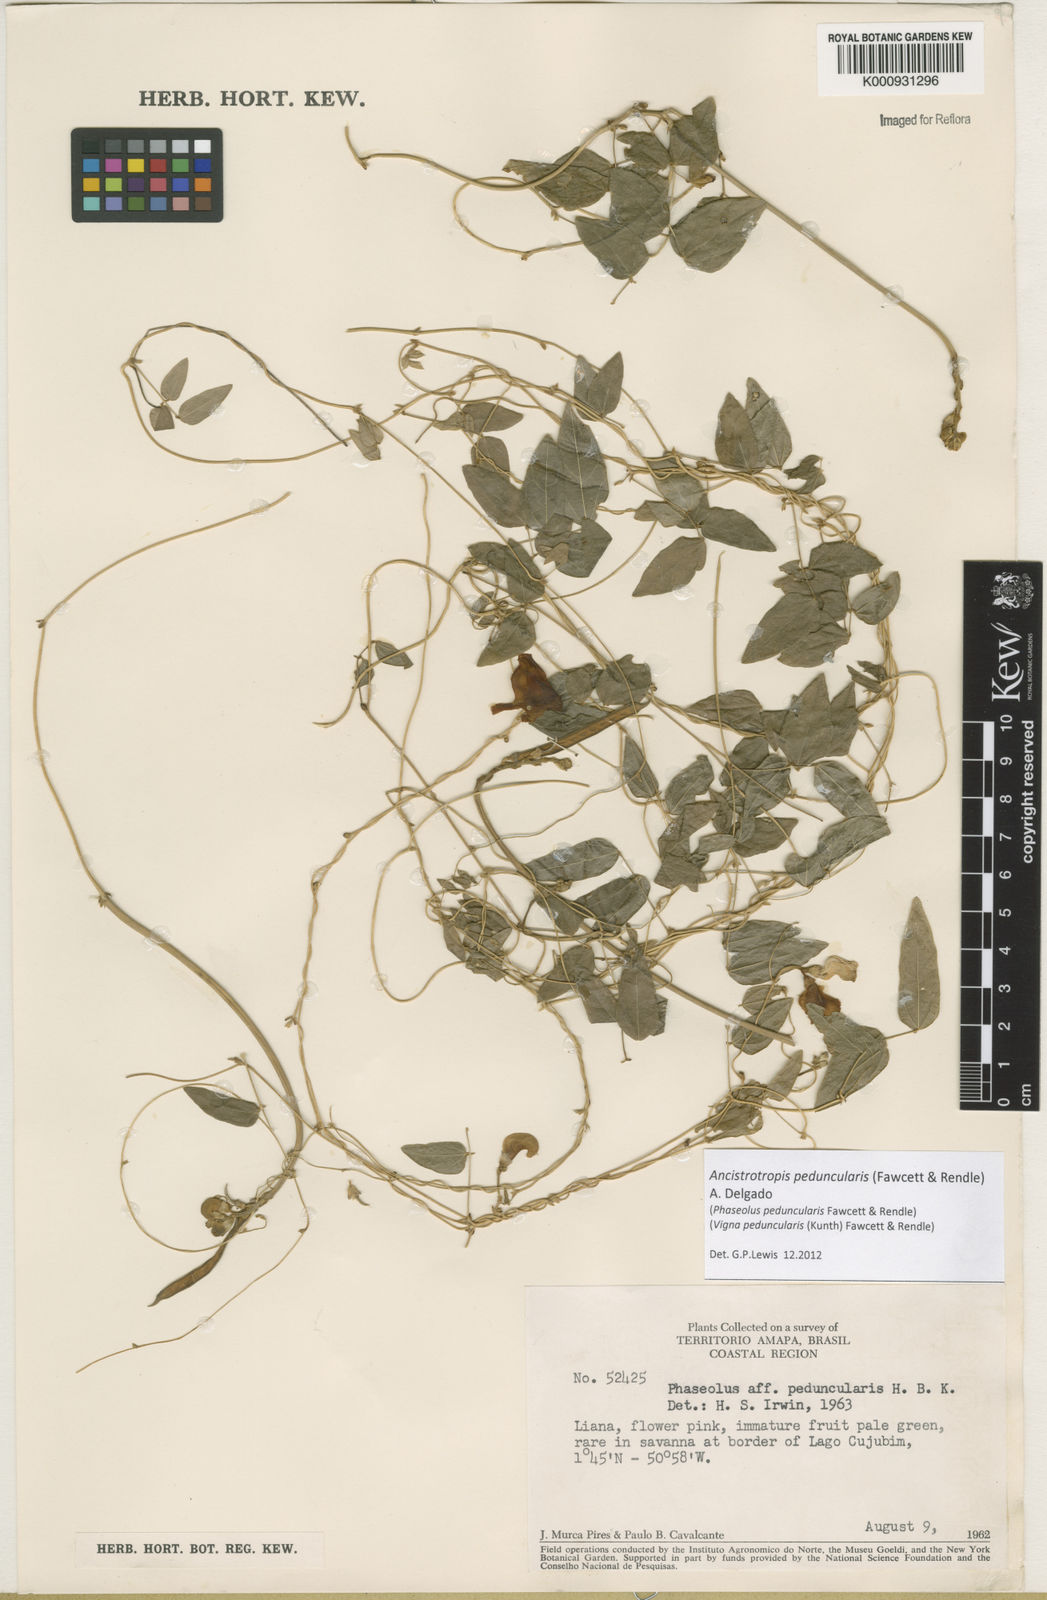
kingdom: Plantae
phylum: Tracheophyta
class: Magnoliopsida
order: Fabales
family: Fabaceae
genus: Ancistrotropis
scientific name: Ancistrotropis peduncularis
